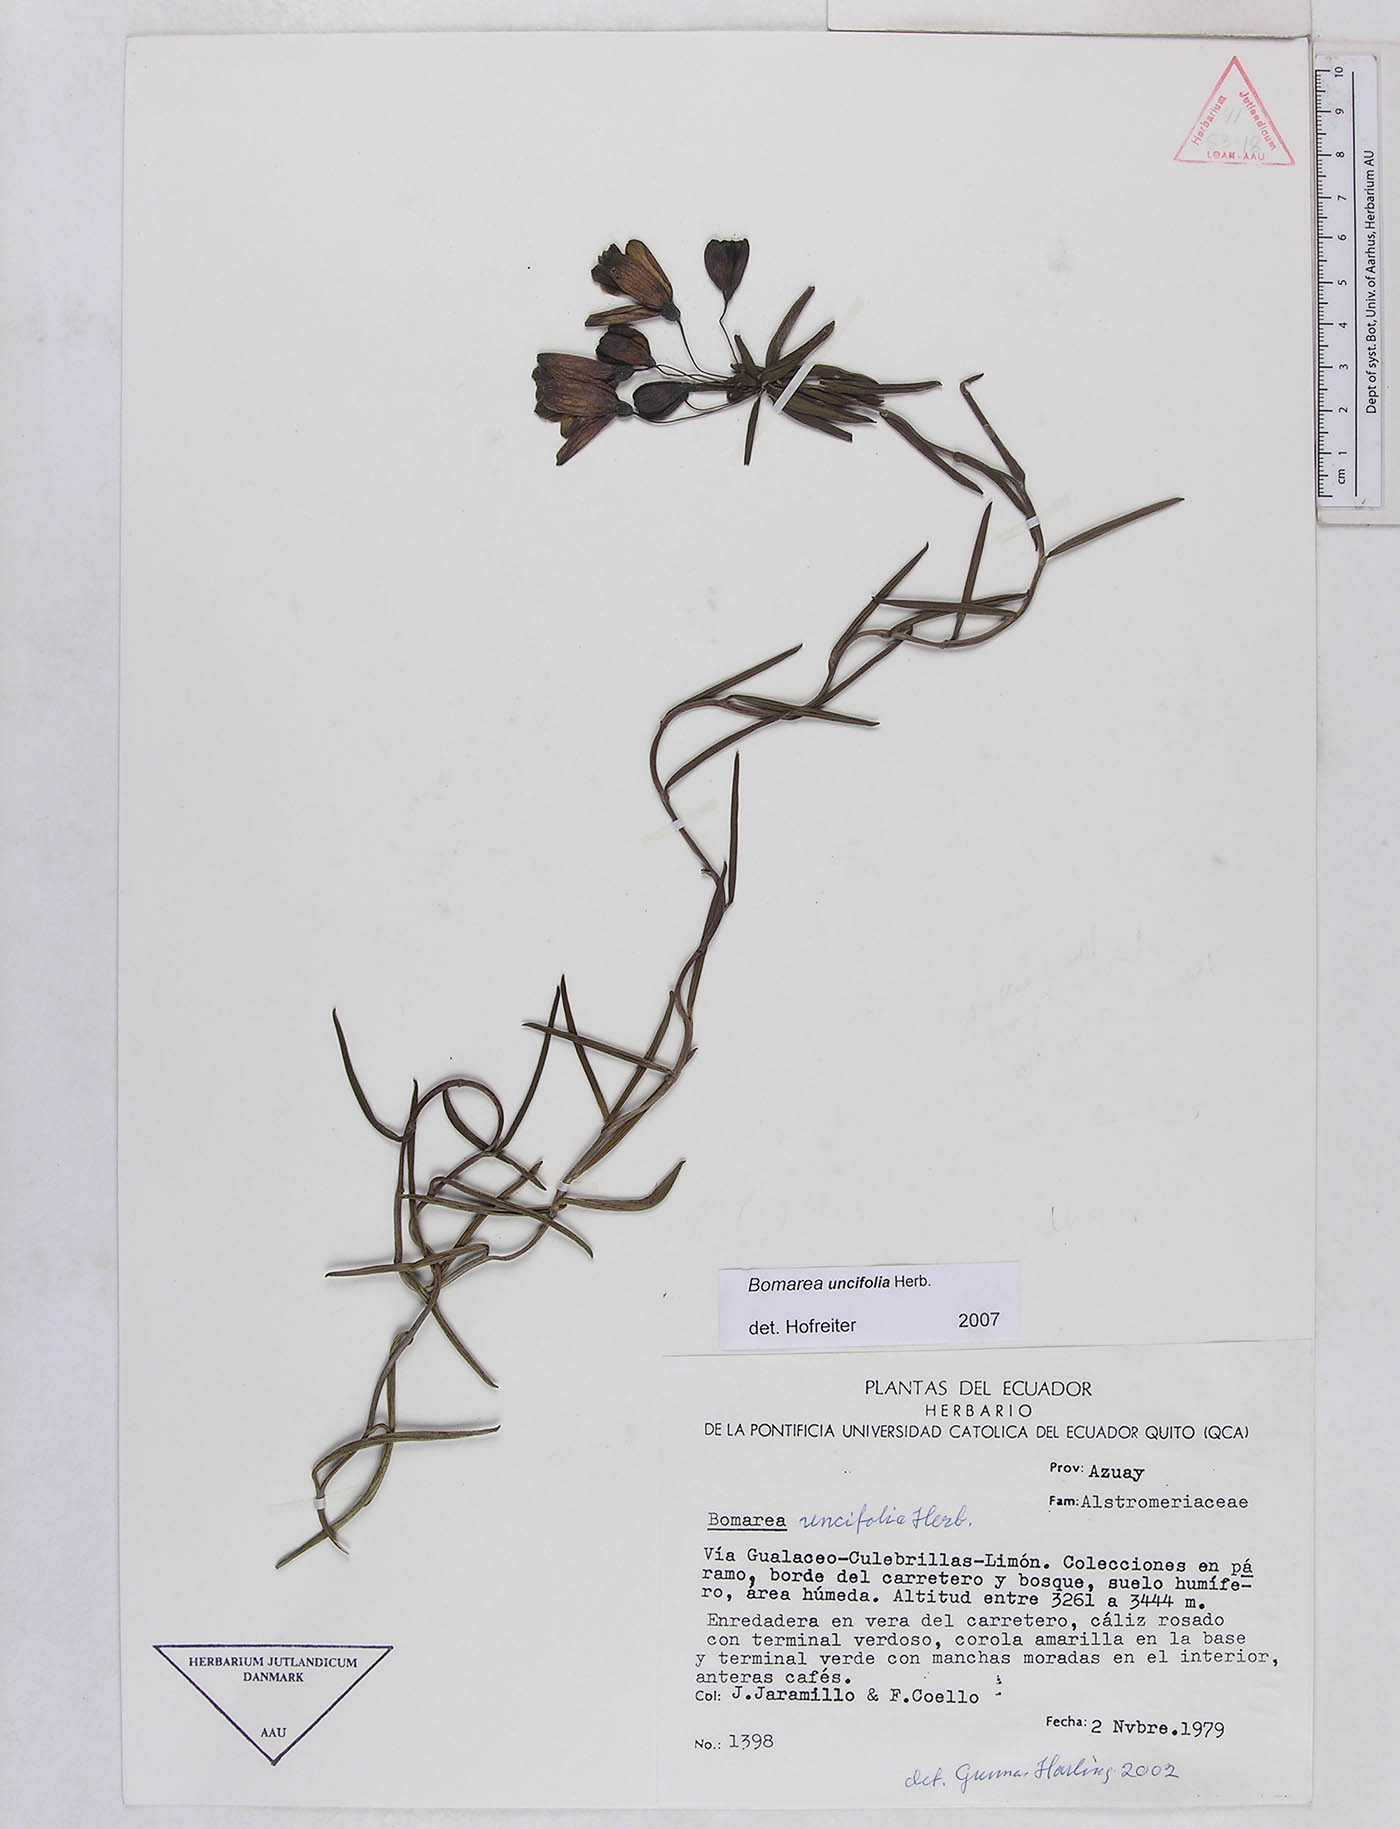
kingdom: Plantae
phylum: Tracheophyta
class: Liliopsida
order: Liliales
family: Alstroemeriaceae
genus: Bomarea
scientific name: Bomarea uncifolia
